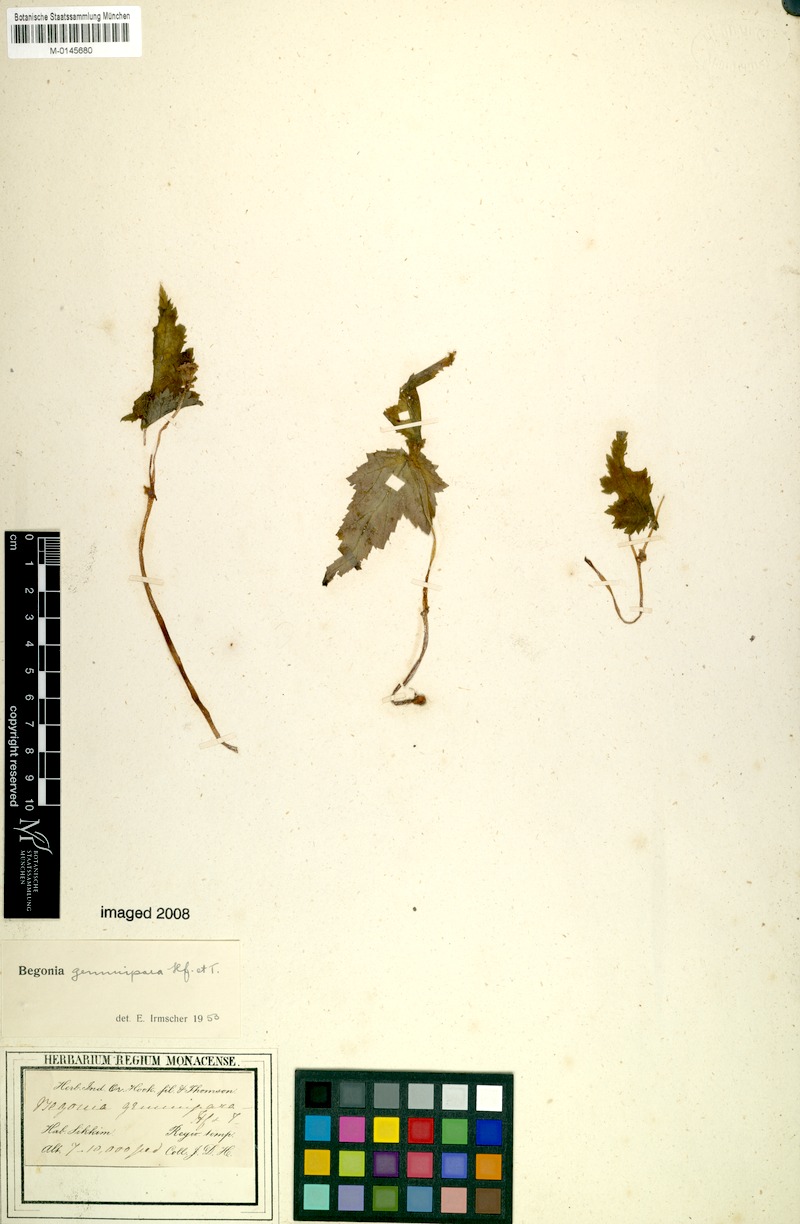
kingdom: Plantae
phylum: Tracheophyta
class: Magnoliopsida
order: Cucurbitales
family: Begoniaceae
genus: Begonia
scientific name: Begonia gemmipara
